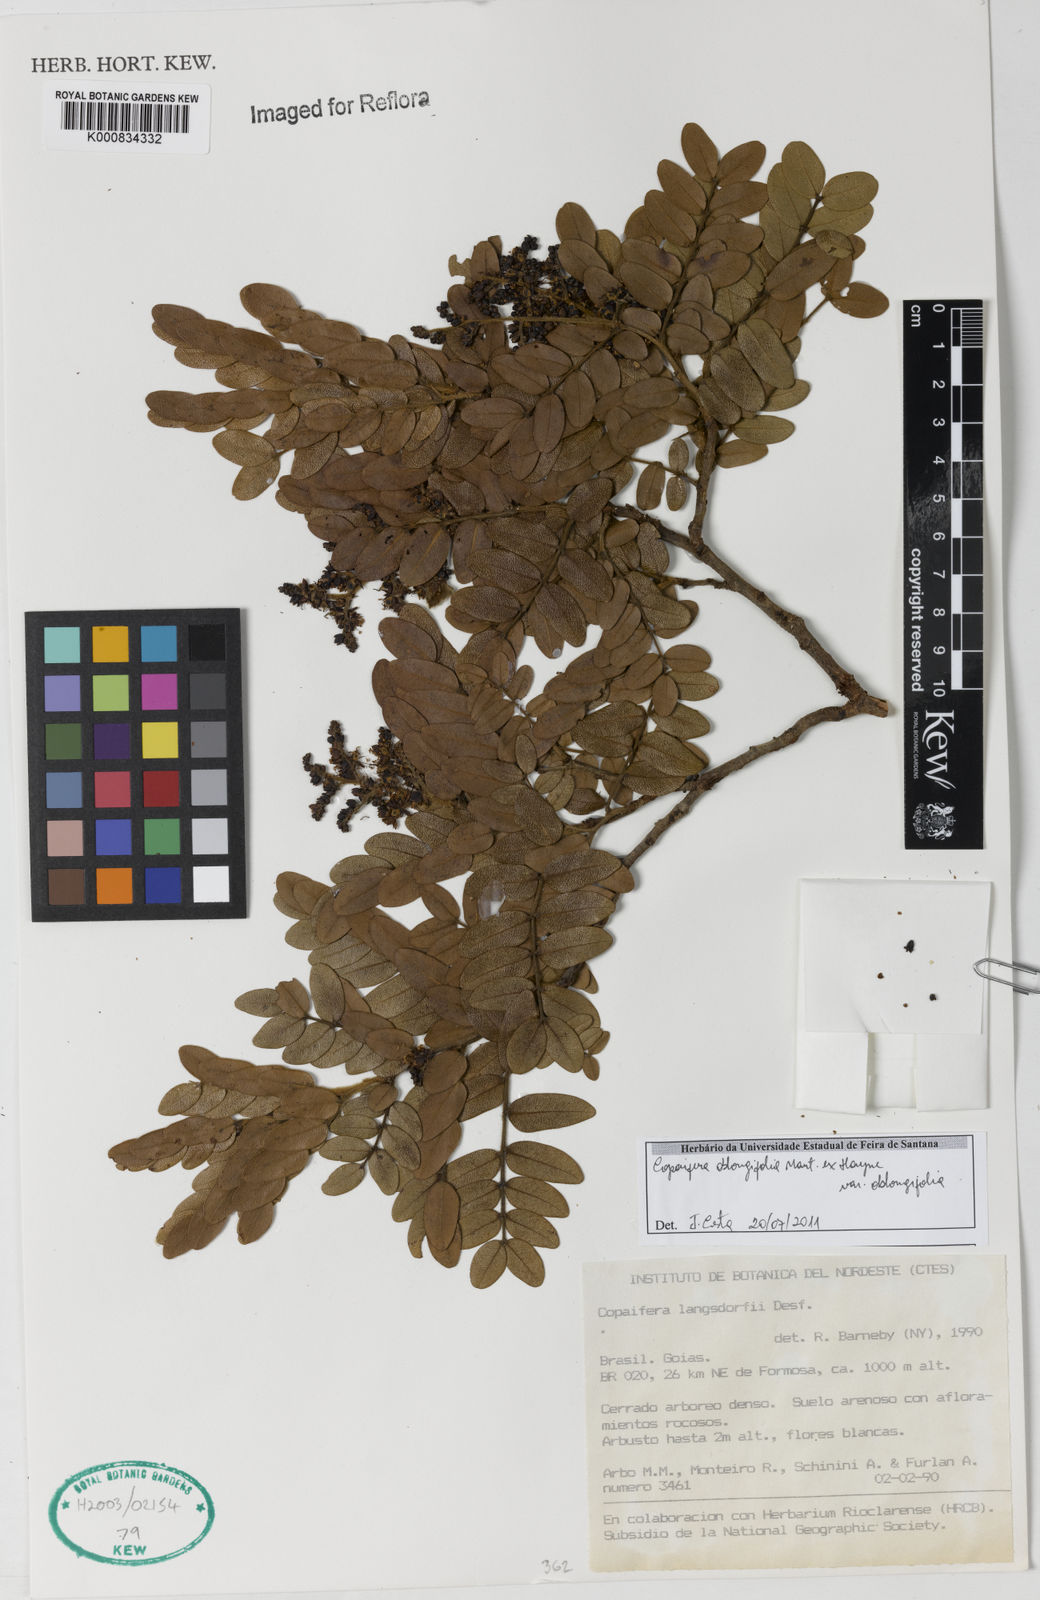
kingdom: Plantae
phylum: Tracheophyta
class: Magnoliopsida
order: Fabales
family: Fabaceae
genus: Copaifera
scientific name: Copaifera oblongifolia
